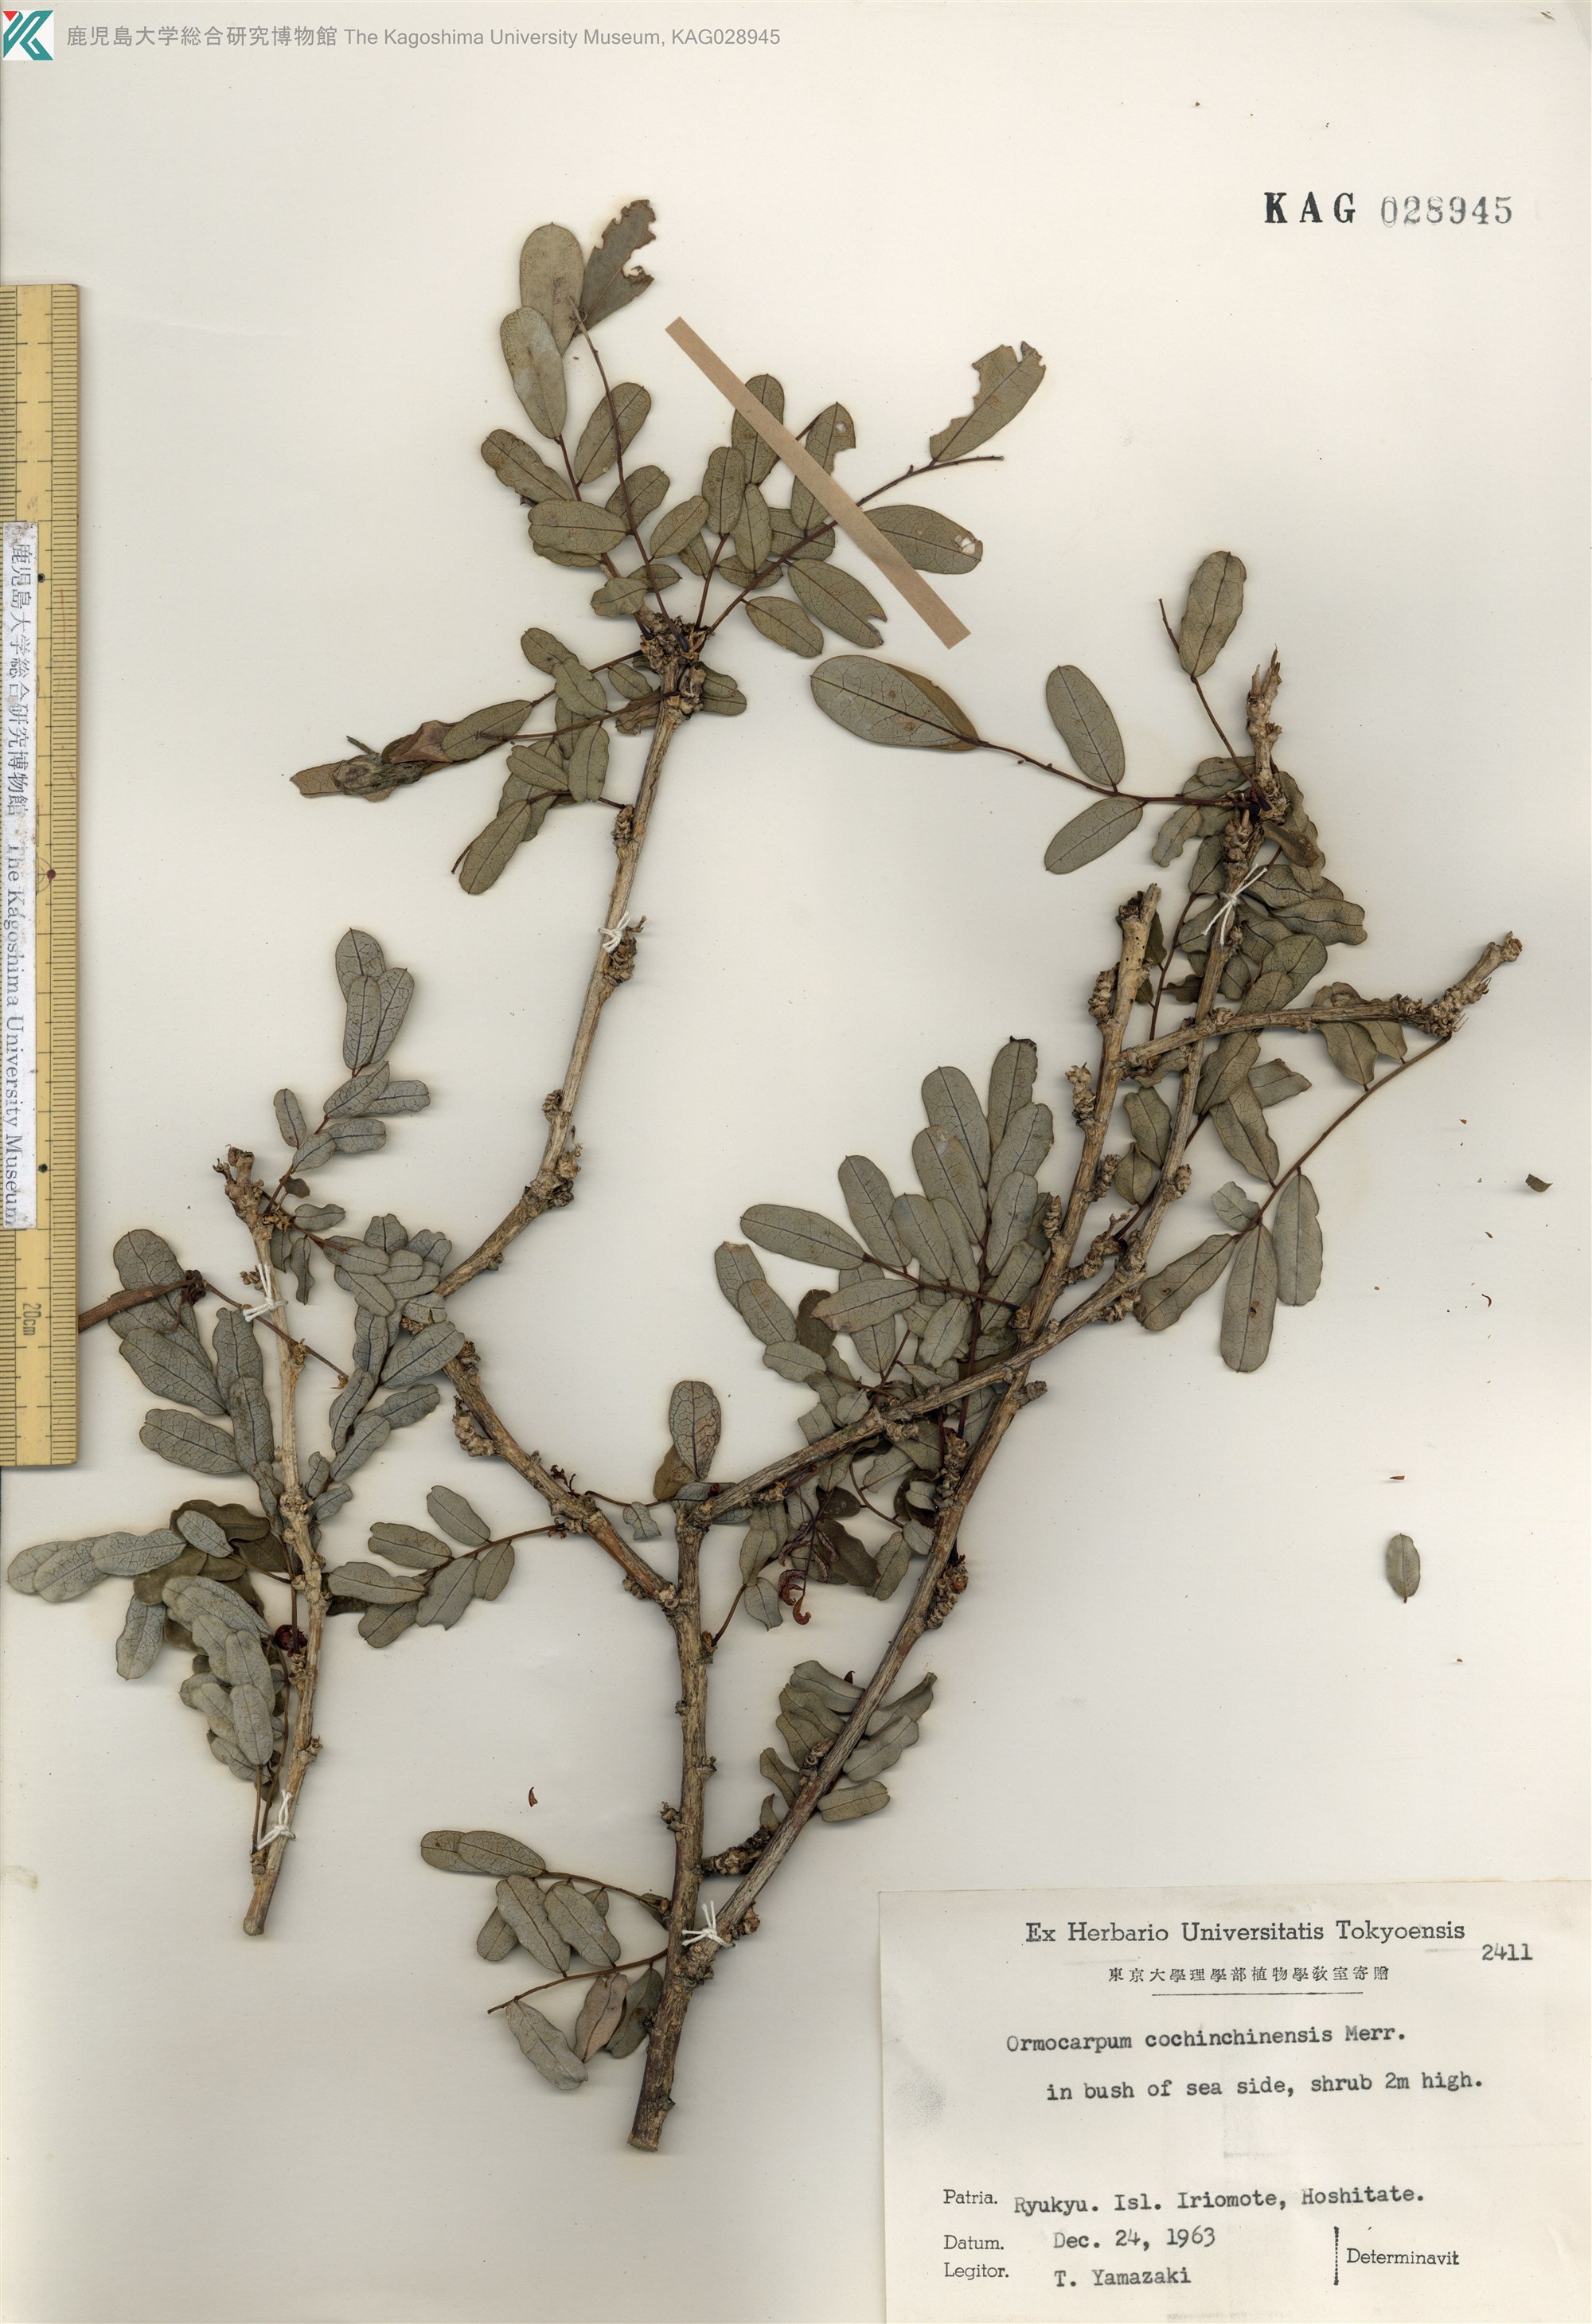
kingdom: Plantae
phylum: Tracheophyta
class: Magnoliopsida
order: Fabales
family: Fabaceae
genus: Ormocarpum
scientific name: Ormocarpum cochinchinense
